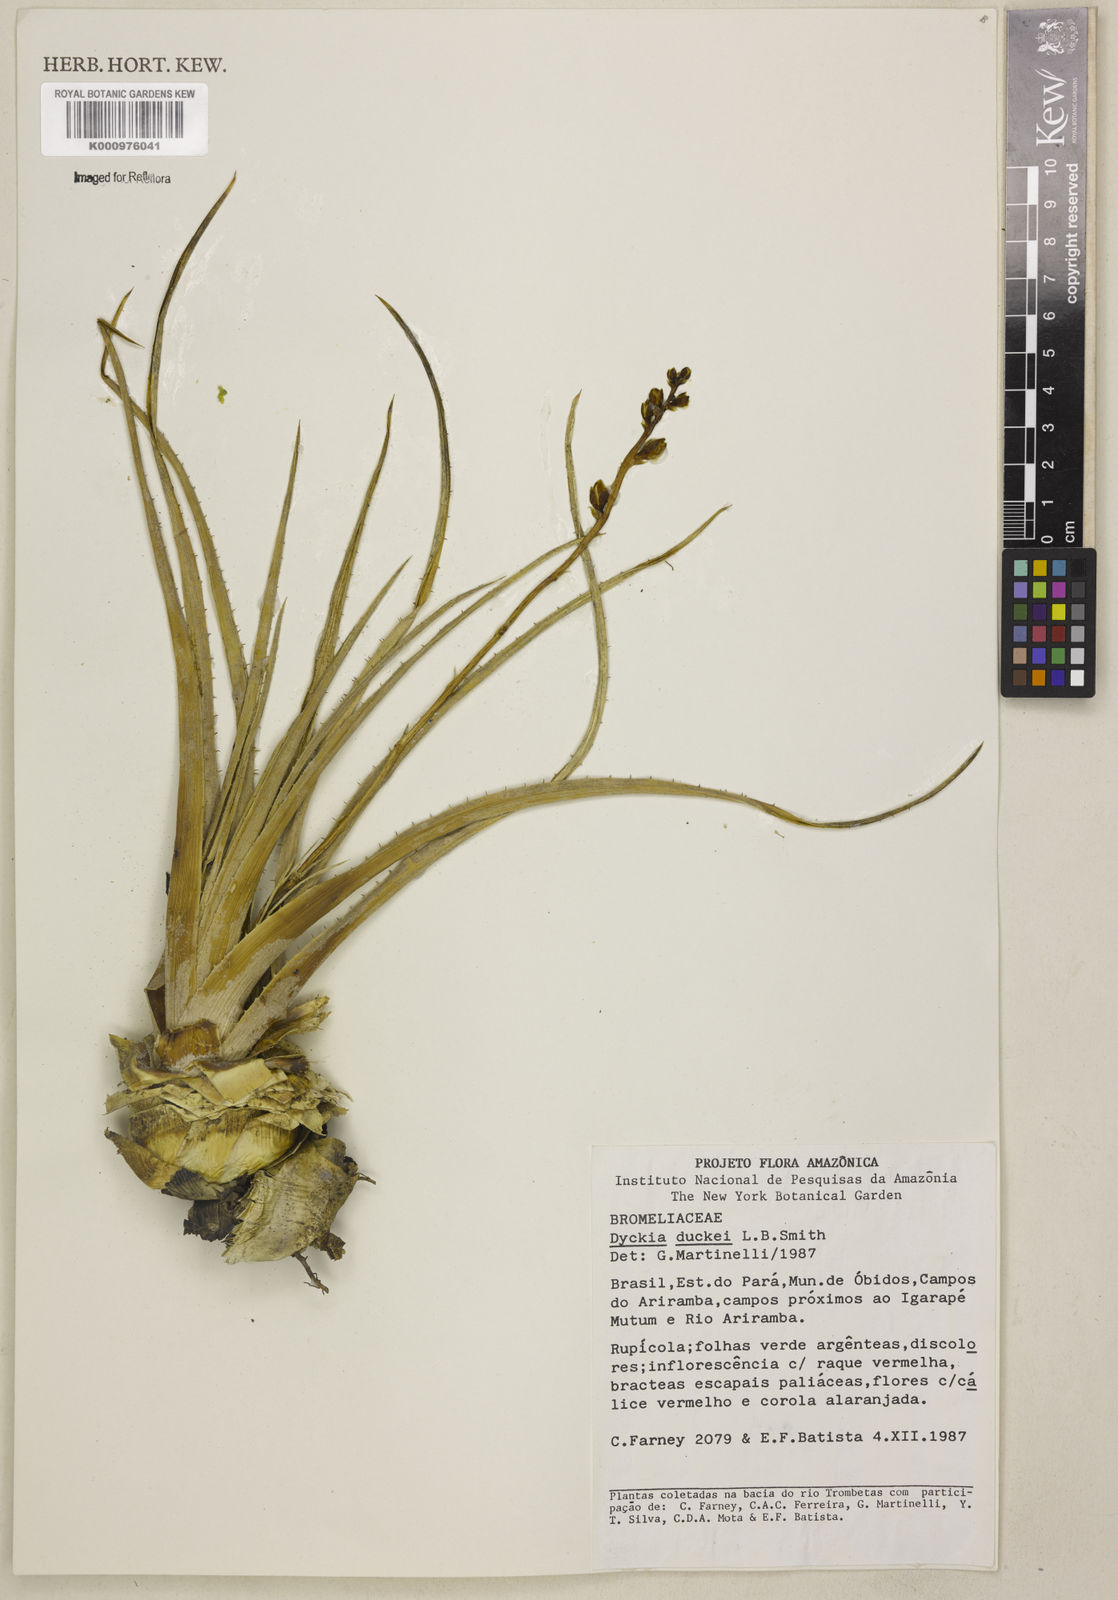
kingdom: Plantae
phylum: Tracheophyta
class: Liliopsida
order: Poales
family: Bromeliaceae
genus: Dyckia
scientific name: Dyckia duckei
